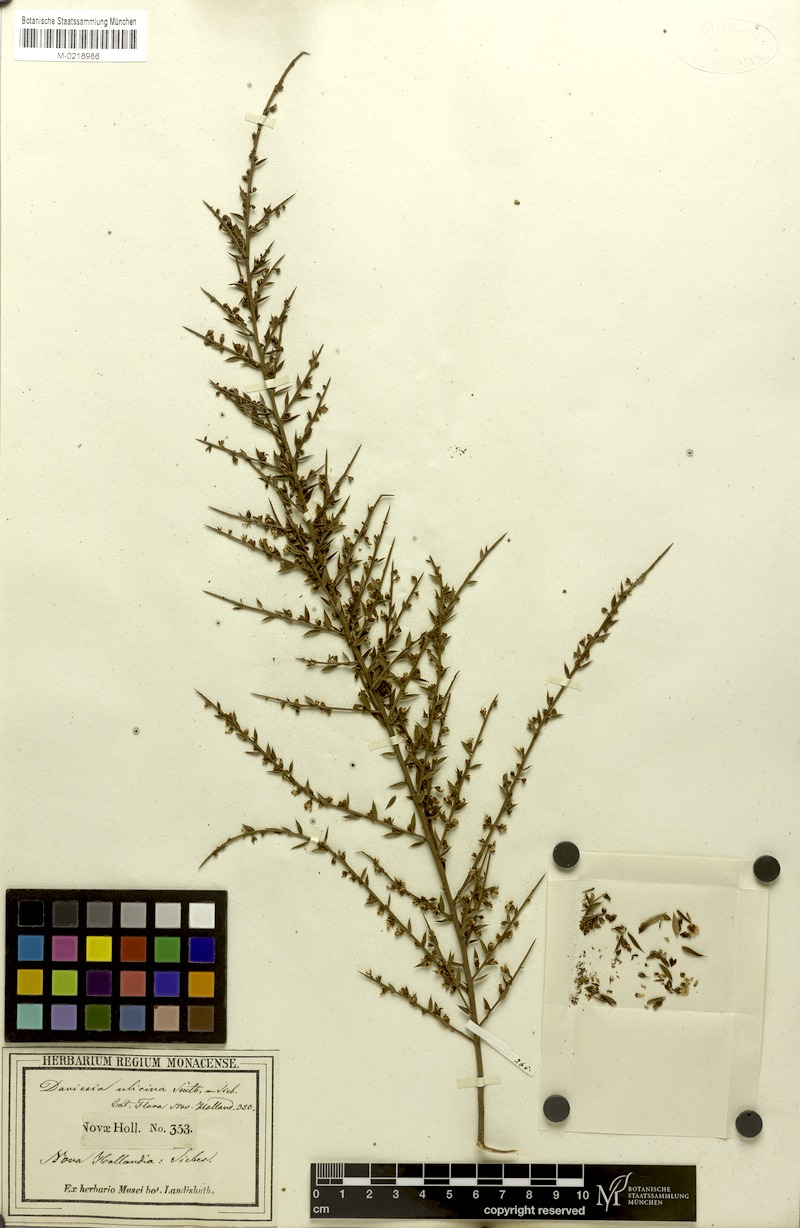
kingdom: Plantae
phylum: Tracheophyta
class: Magnoliopsida
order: Fabales
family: Fabaceae
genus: Daviesia
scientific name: Daviesia ulicifolia
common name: Gorse bitter-pea
